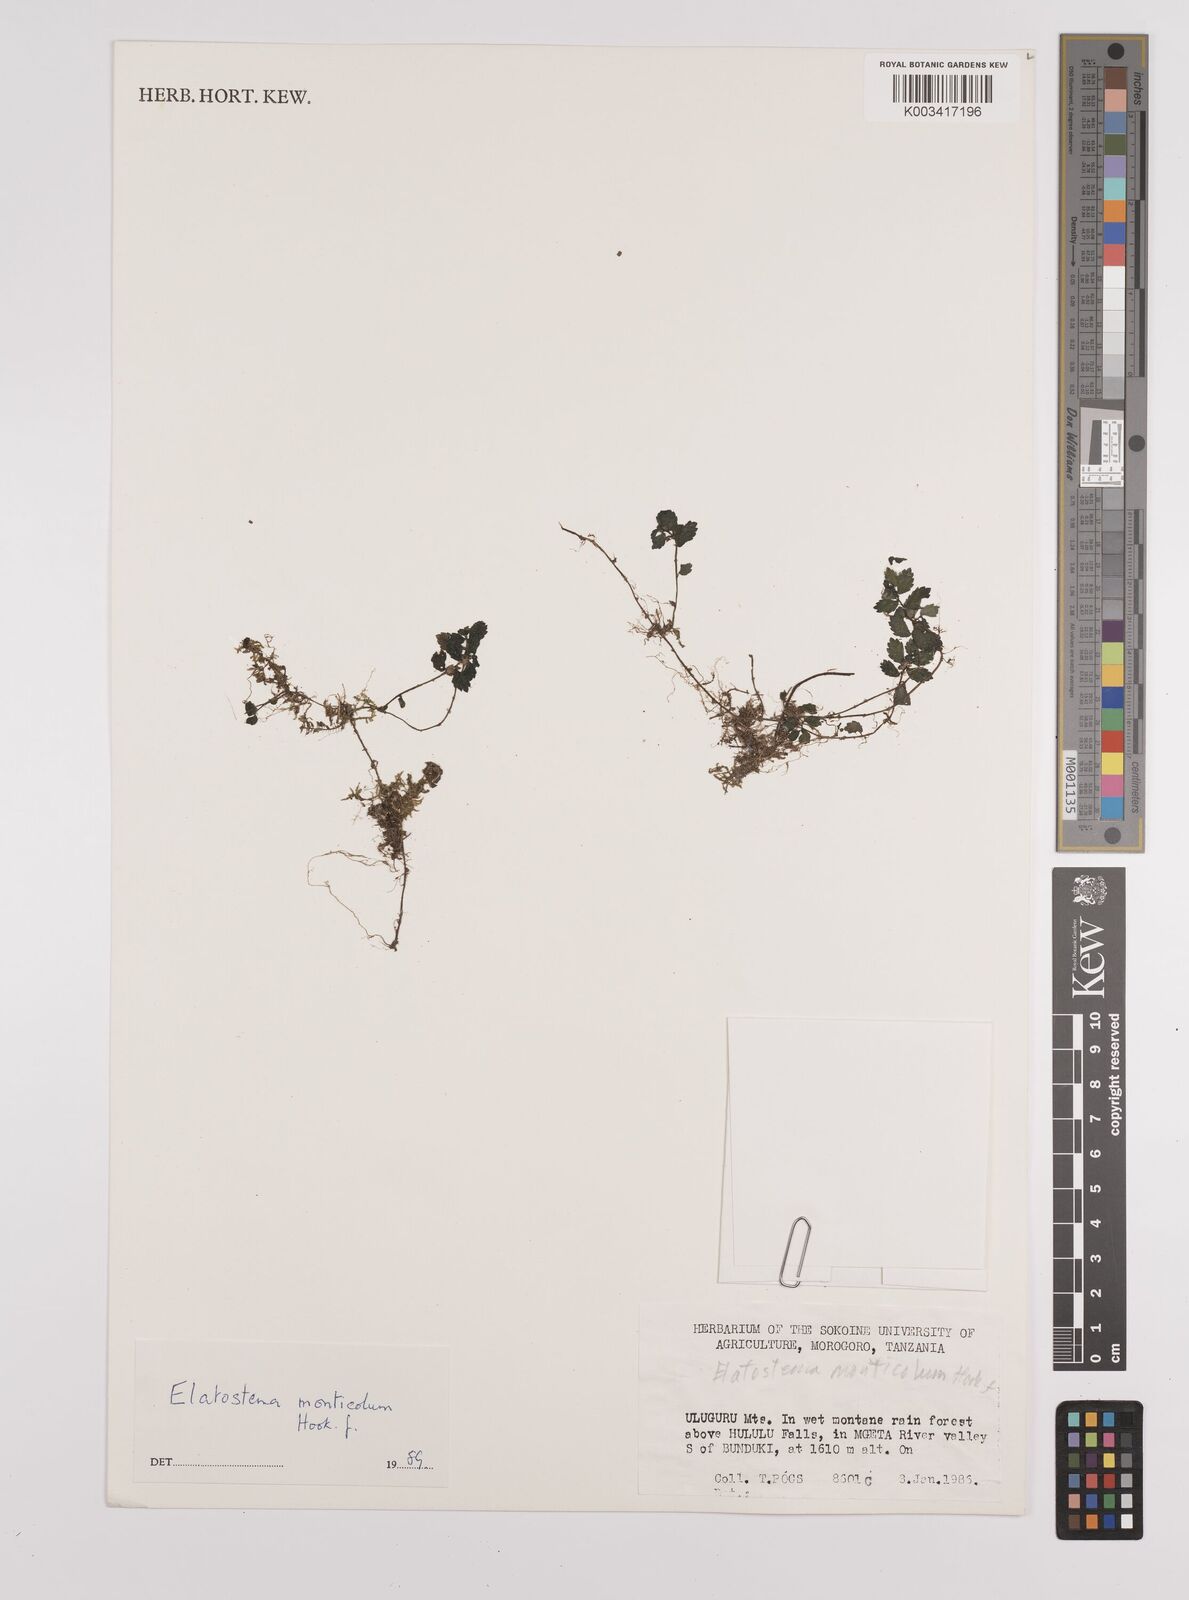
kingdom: Plantae
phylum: Tracheophyta
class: Magnoliopsida
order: Rosales
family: Urticaceae
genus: Elatostema
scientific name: Elatostema monticola
